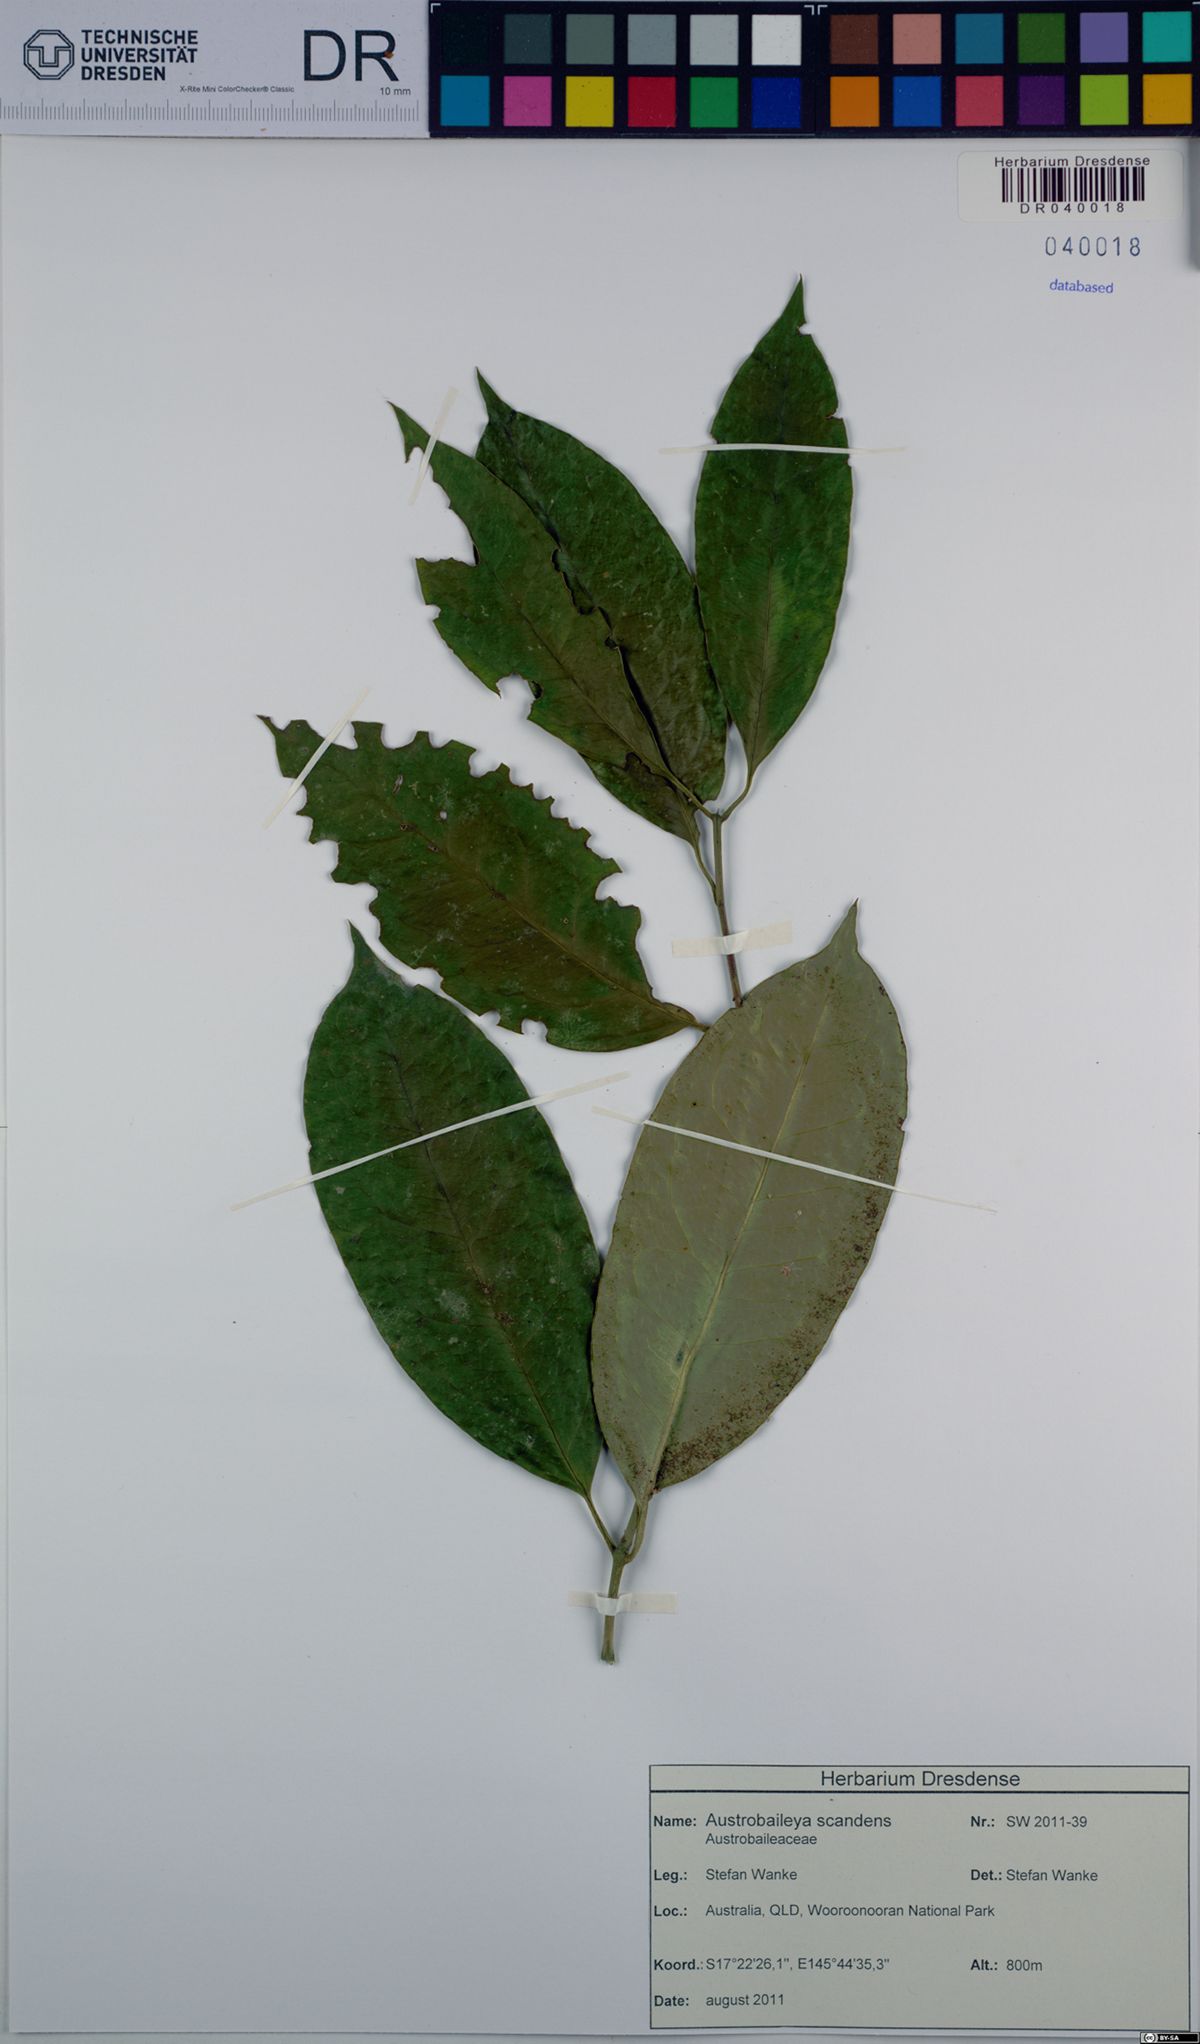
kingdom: Plantae
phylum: Tracheophyta
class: Magnoliopsida
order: Austrobaileyales
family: Austrobaileyaceae
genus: Austrobaileya
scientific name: Austrobaileya scandens
